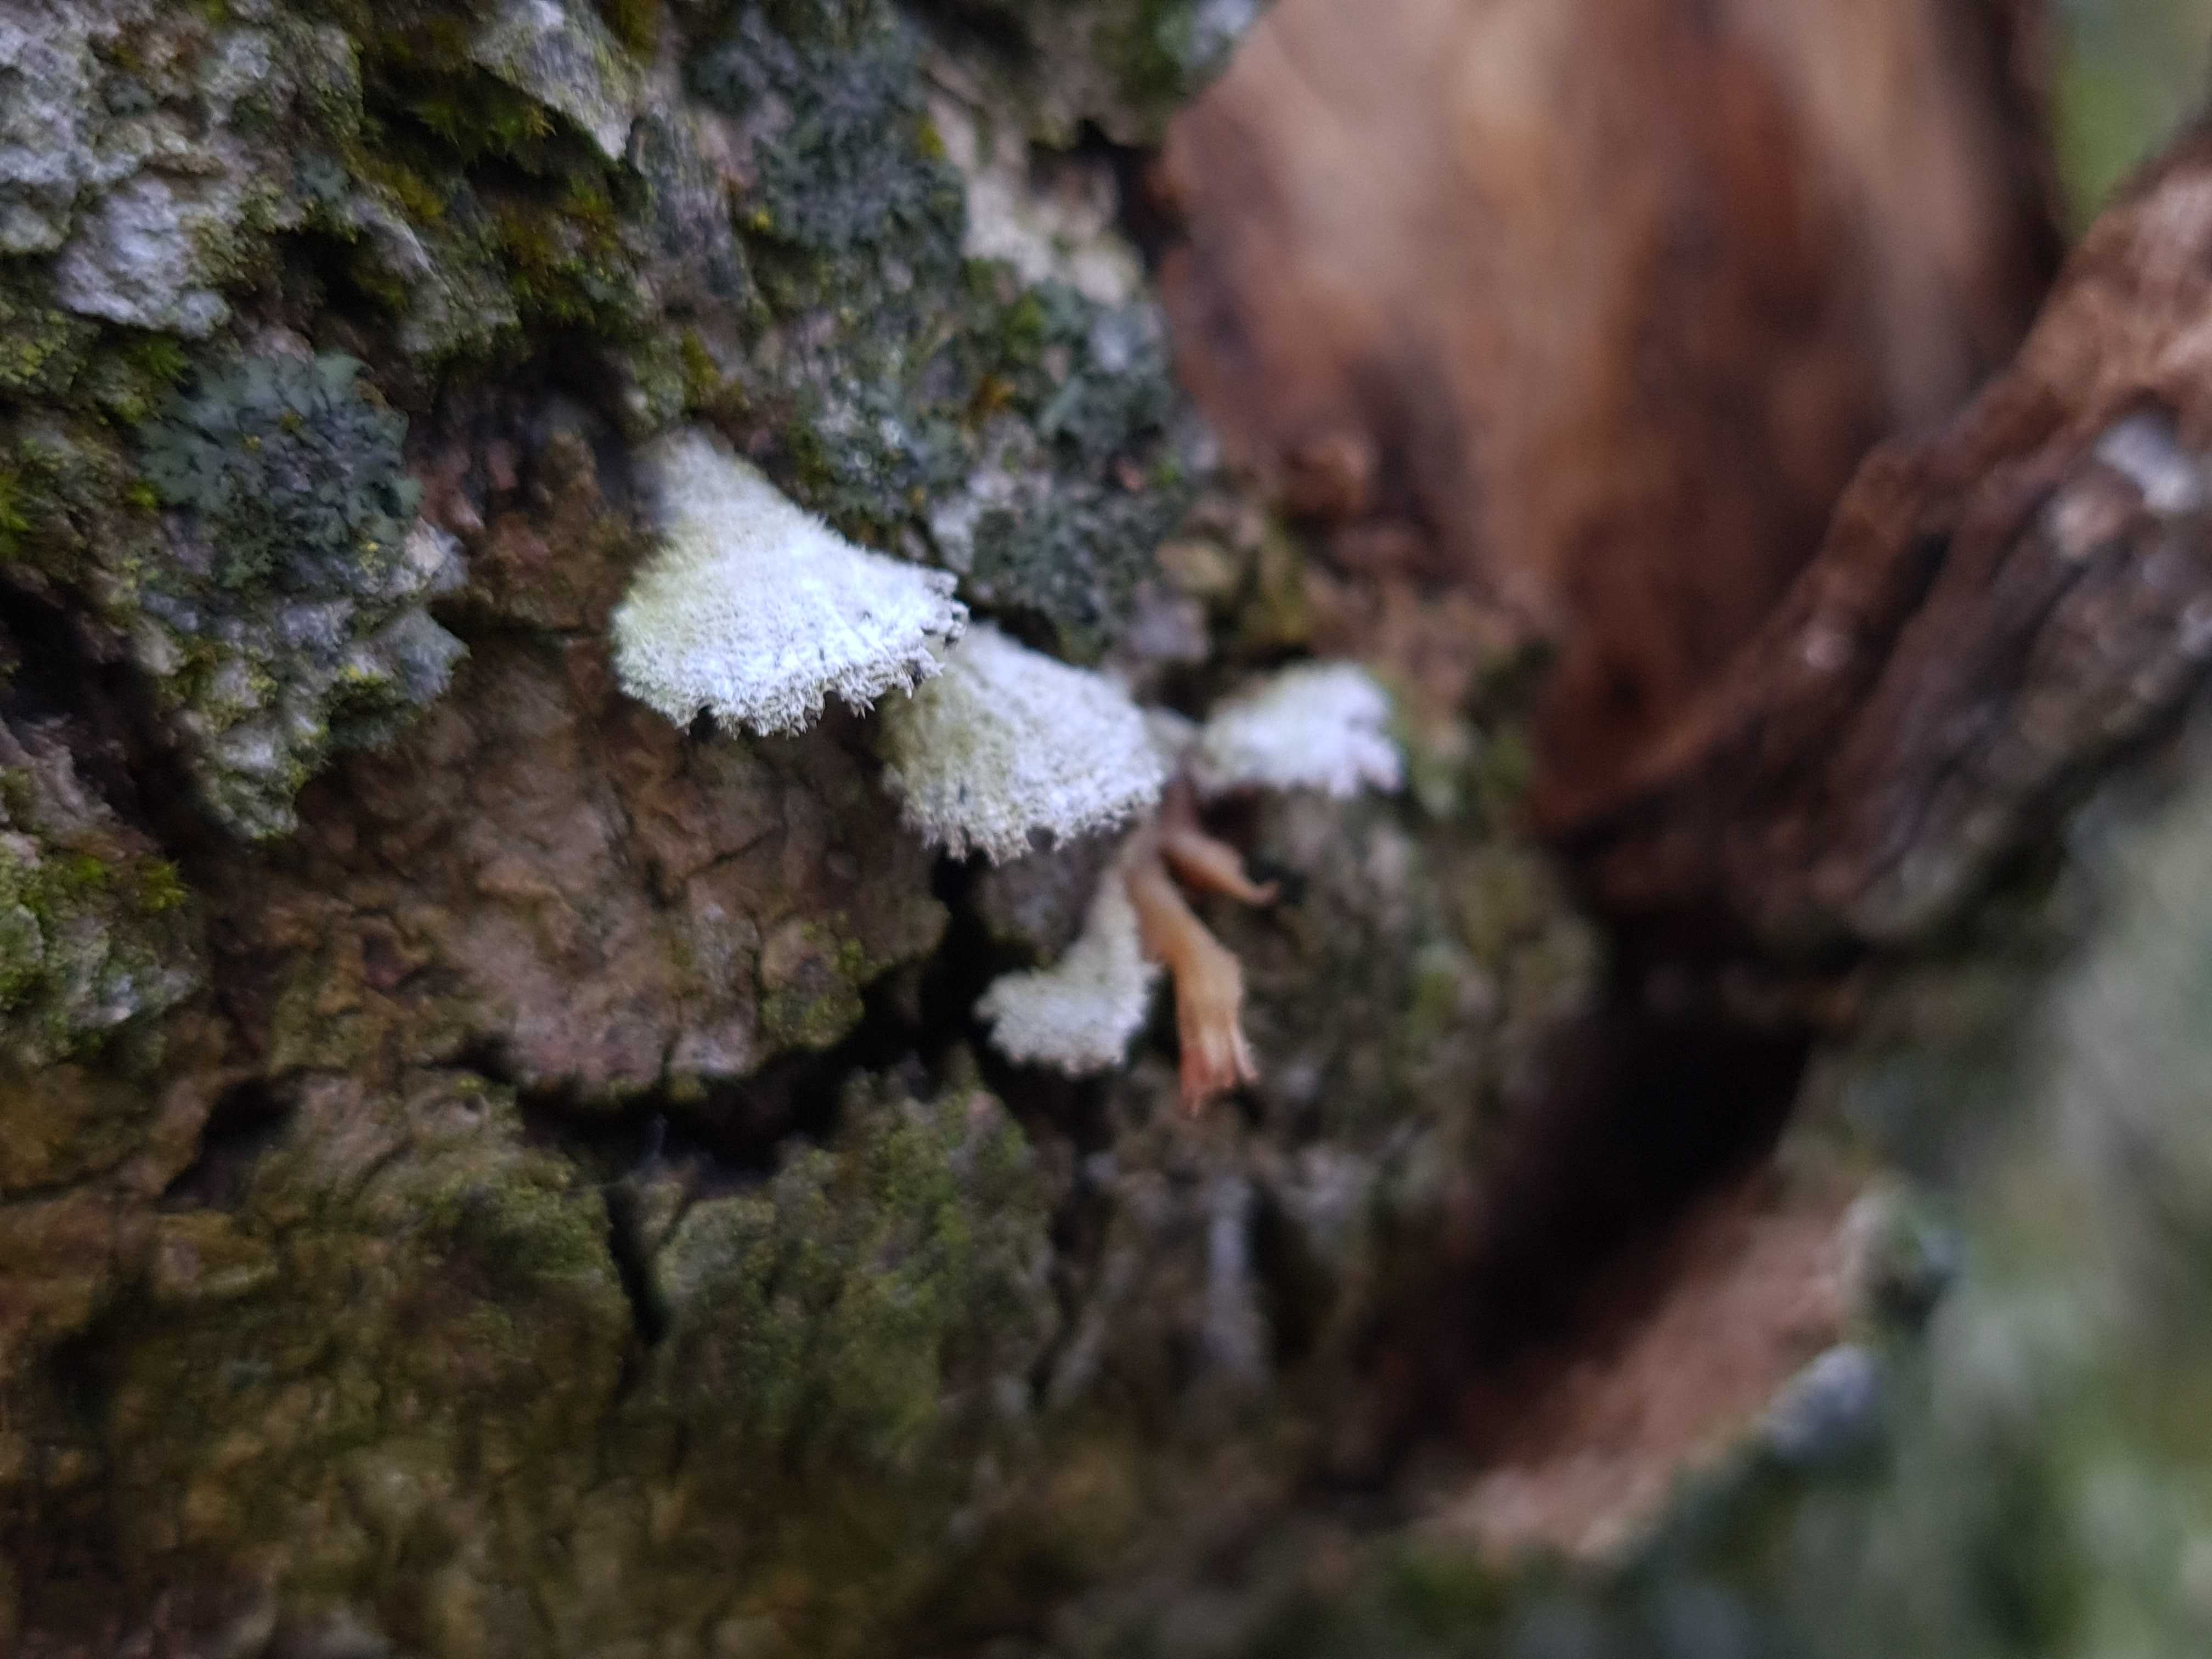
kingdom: Fungi
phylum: Basidiomycota
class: Agaricomycetes
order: Agaricales
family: Schizophyllaceae
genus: Schizophyllum
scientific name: Schizophyllum commune
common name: kløvblad
